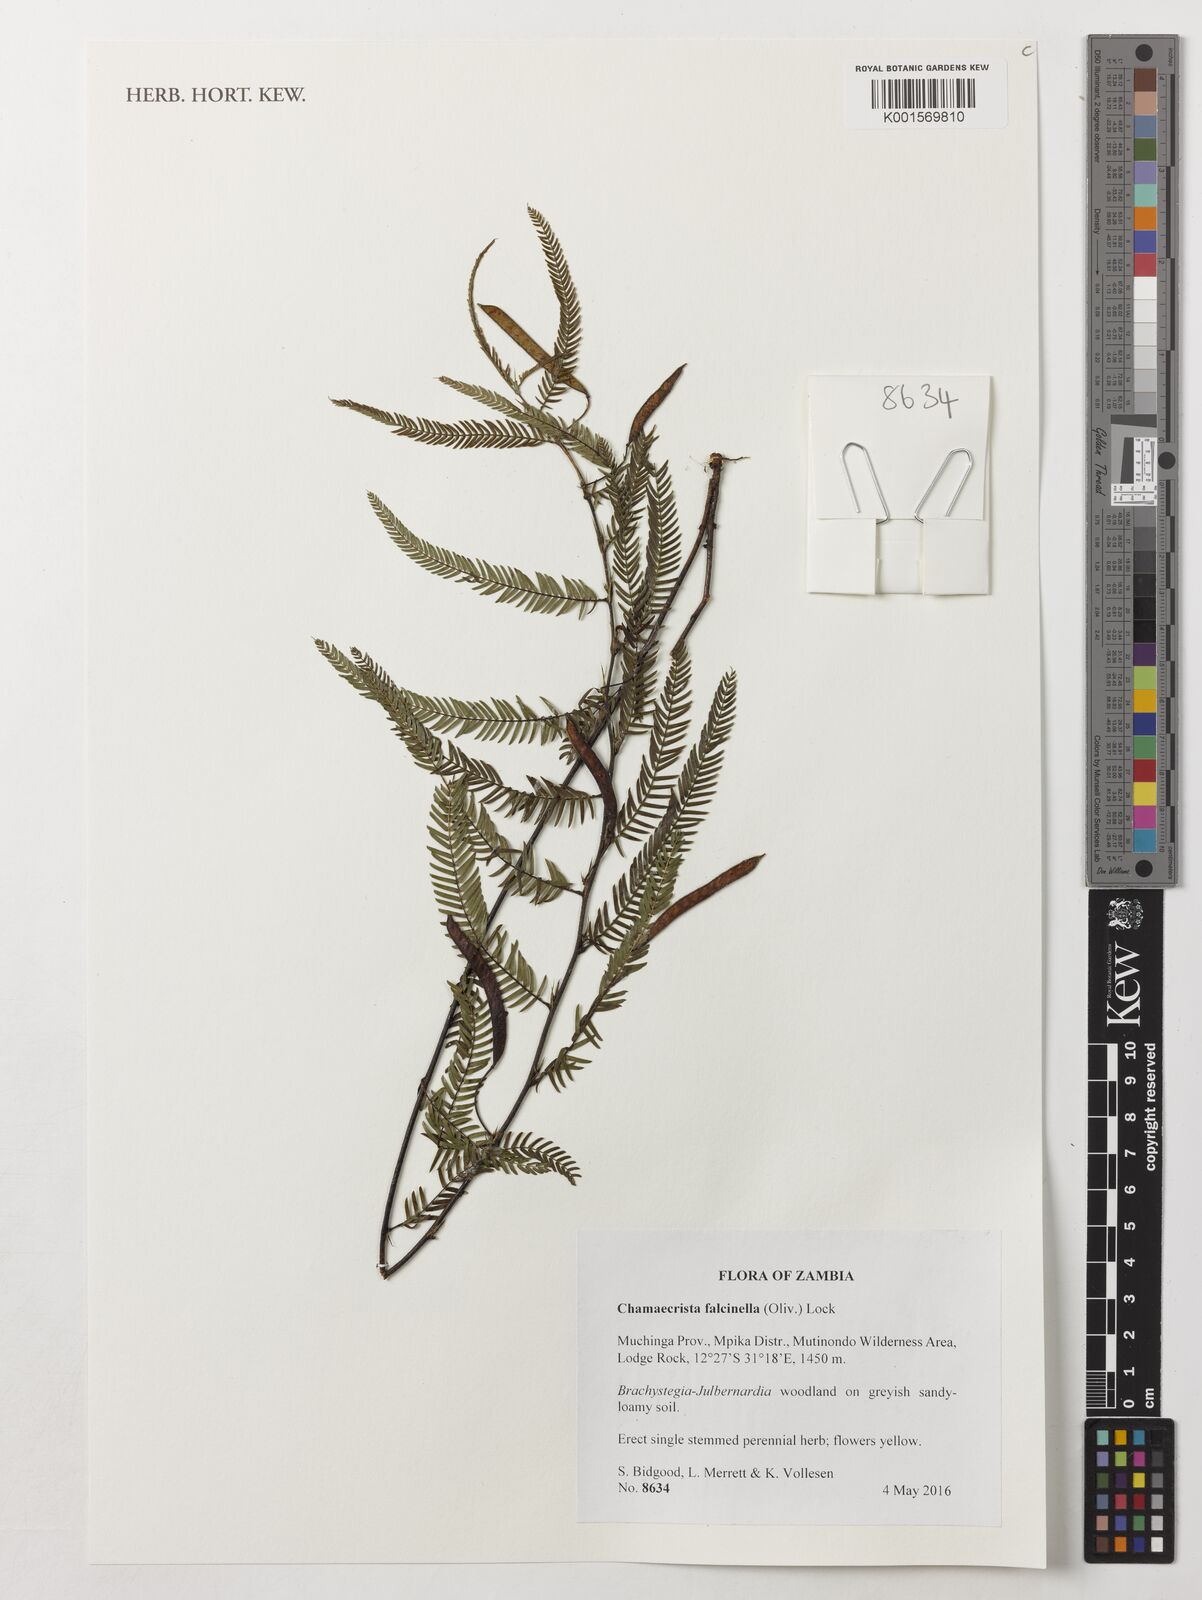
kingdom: Plantae
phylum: Tracheophyta
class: Magnoliopsida
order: Fabales
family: Fabaceae
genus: Chamaecrista
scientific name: Chamaecrista falcinella
